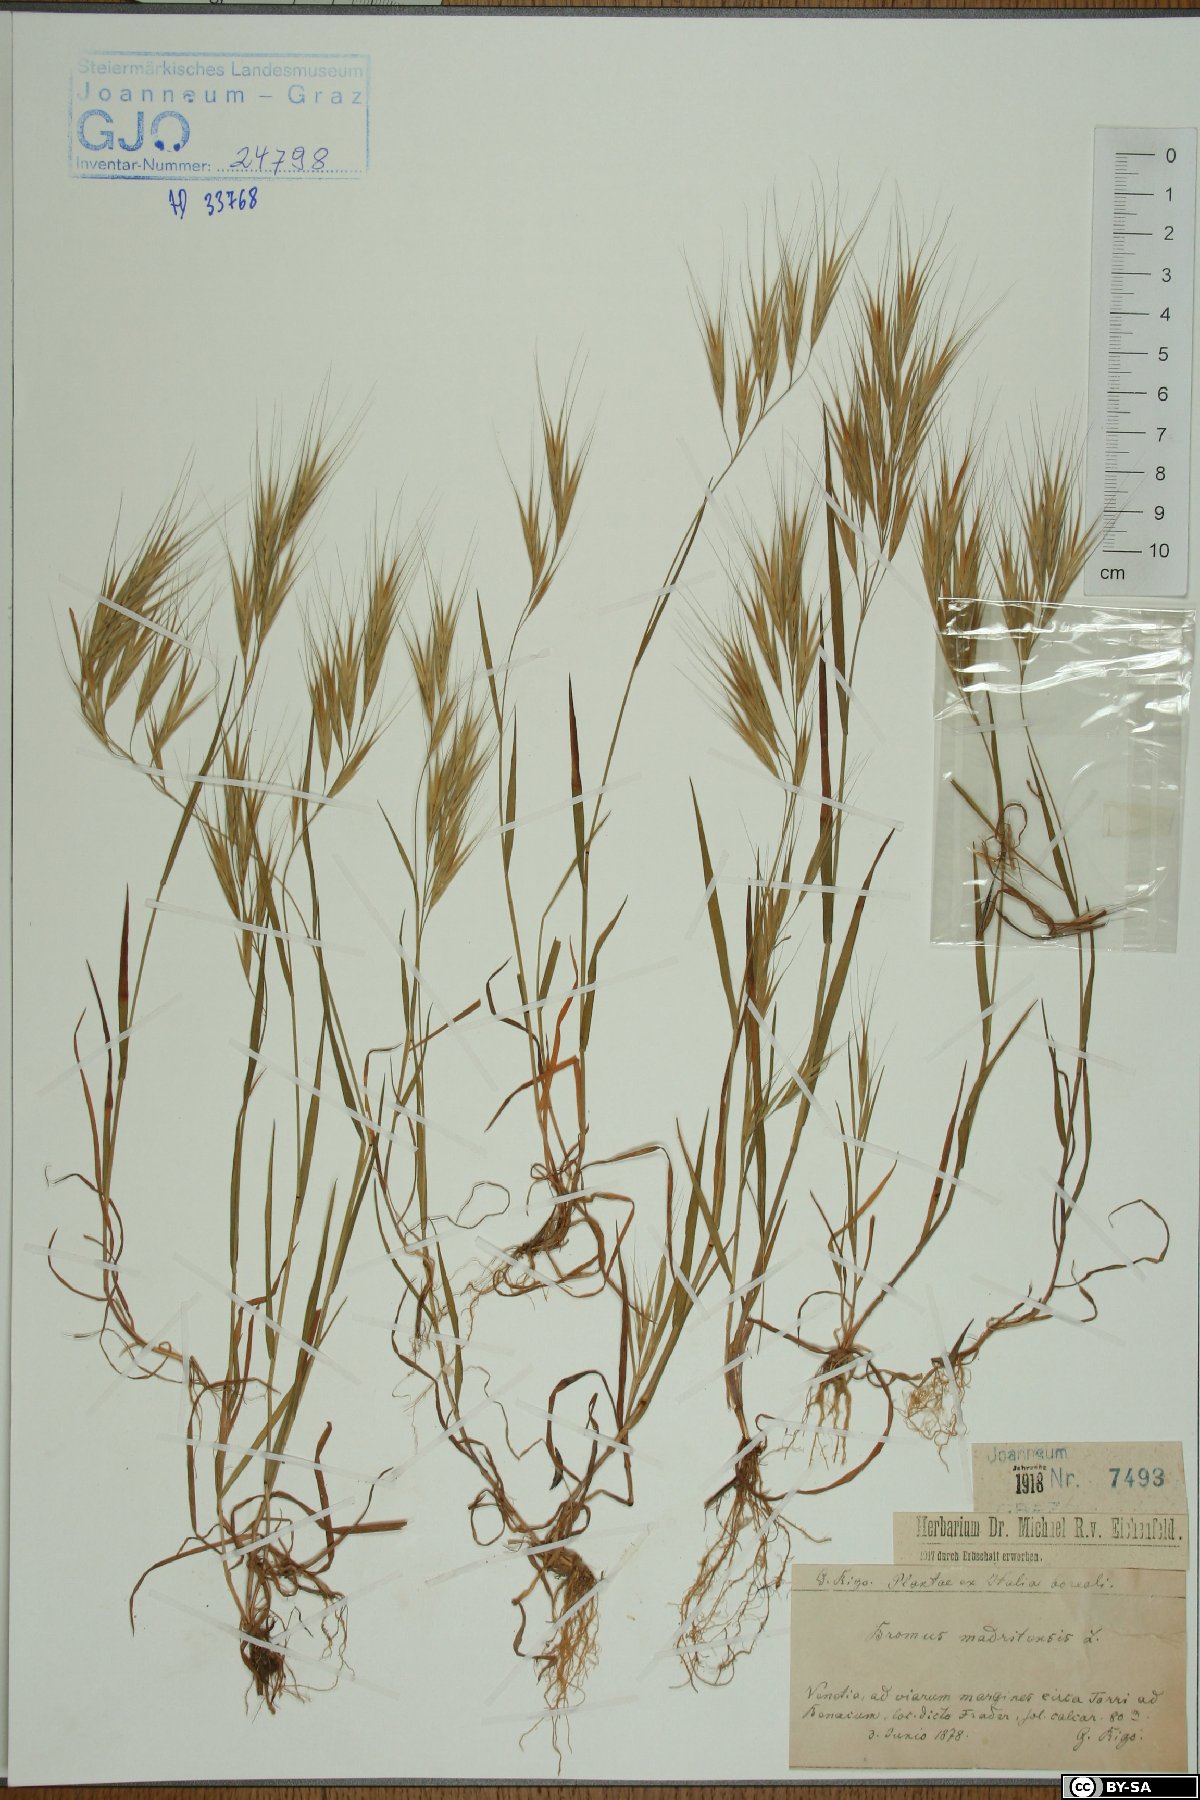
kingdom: Plantae
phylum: Tracheophyta
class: Liliopsida
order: Poales
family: Poaceae
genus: Bromus
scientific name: Bromus madritensis
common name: Compact brome
